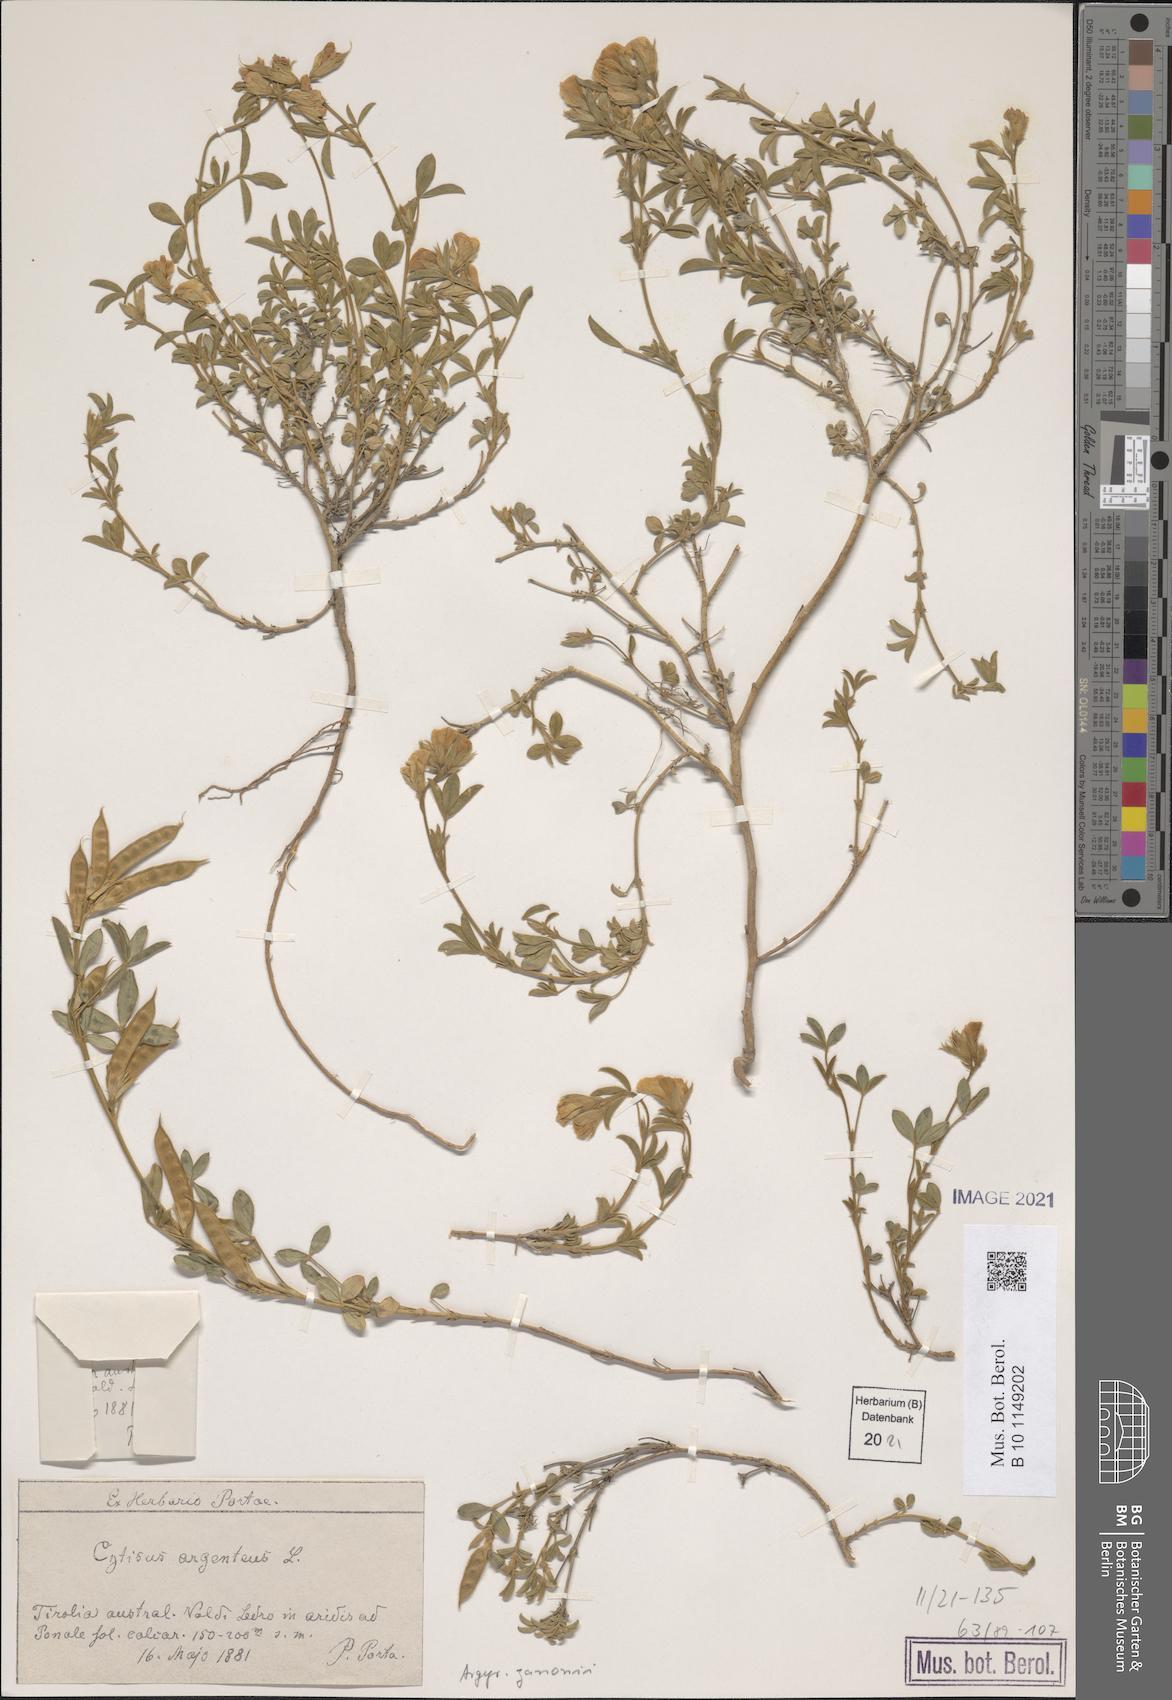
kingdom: Plantae
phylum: Tracheophyta
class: Magnoliopsida
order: Fabales
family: Fabaceae
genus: Argyrolobium
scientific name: Argyrolobium zanonii
